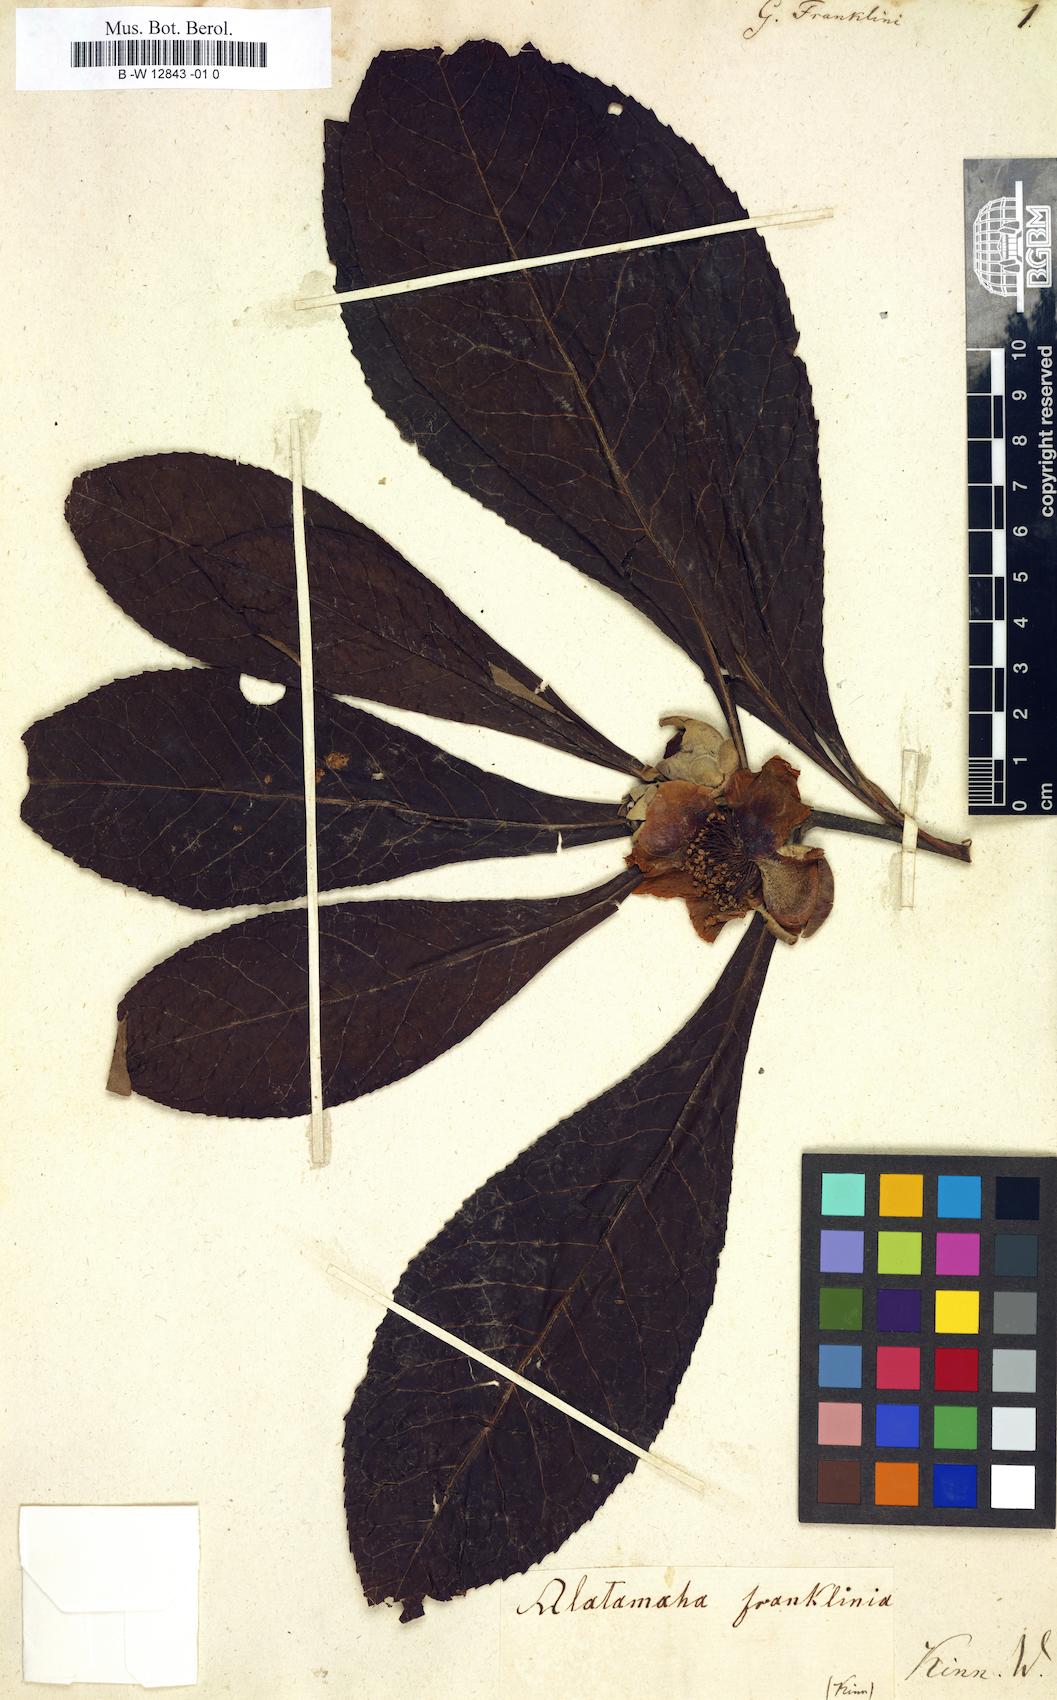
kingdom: Plantae
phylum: Tracheophyta
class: Magnoliopsida
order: Ericales
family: Theaceae
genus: Franklinia
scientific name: Franklinia alatamaha
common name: Franklin tree
